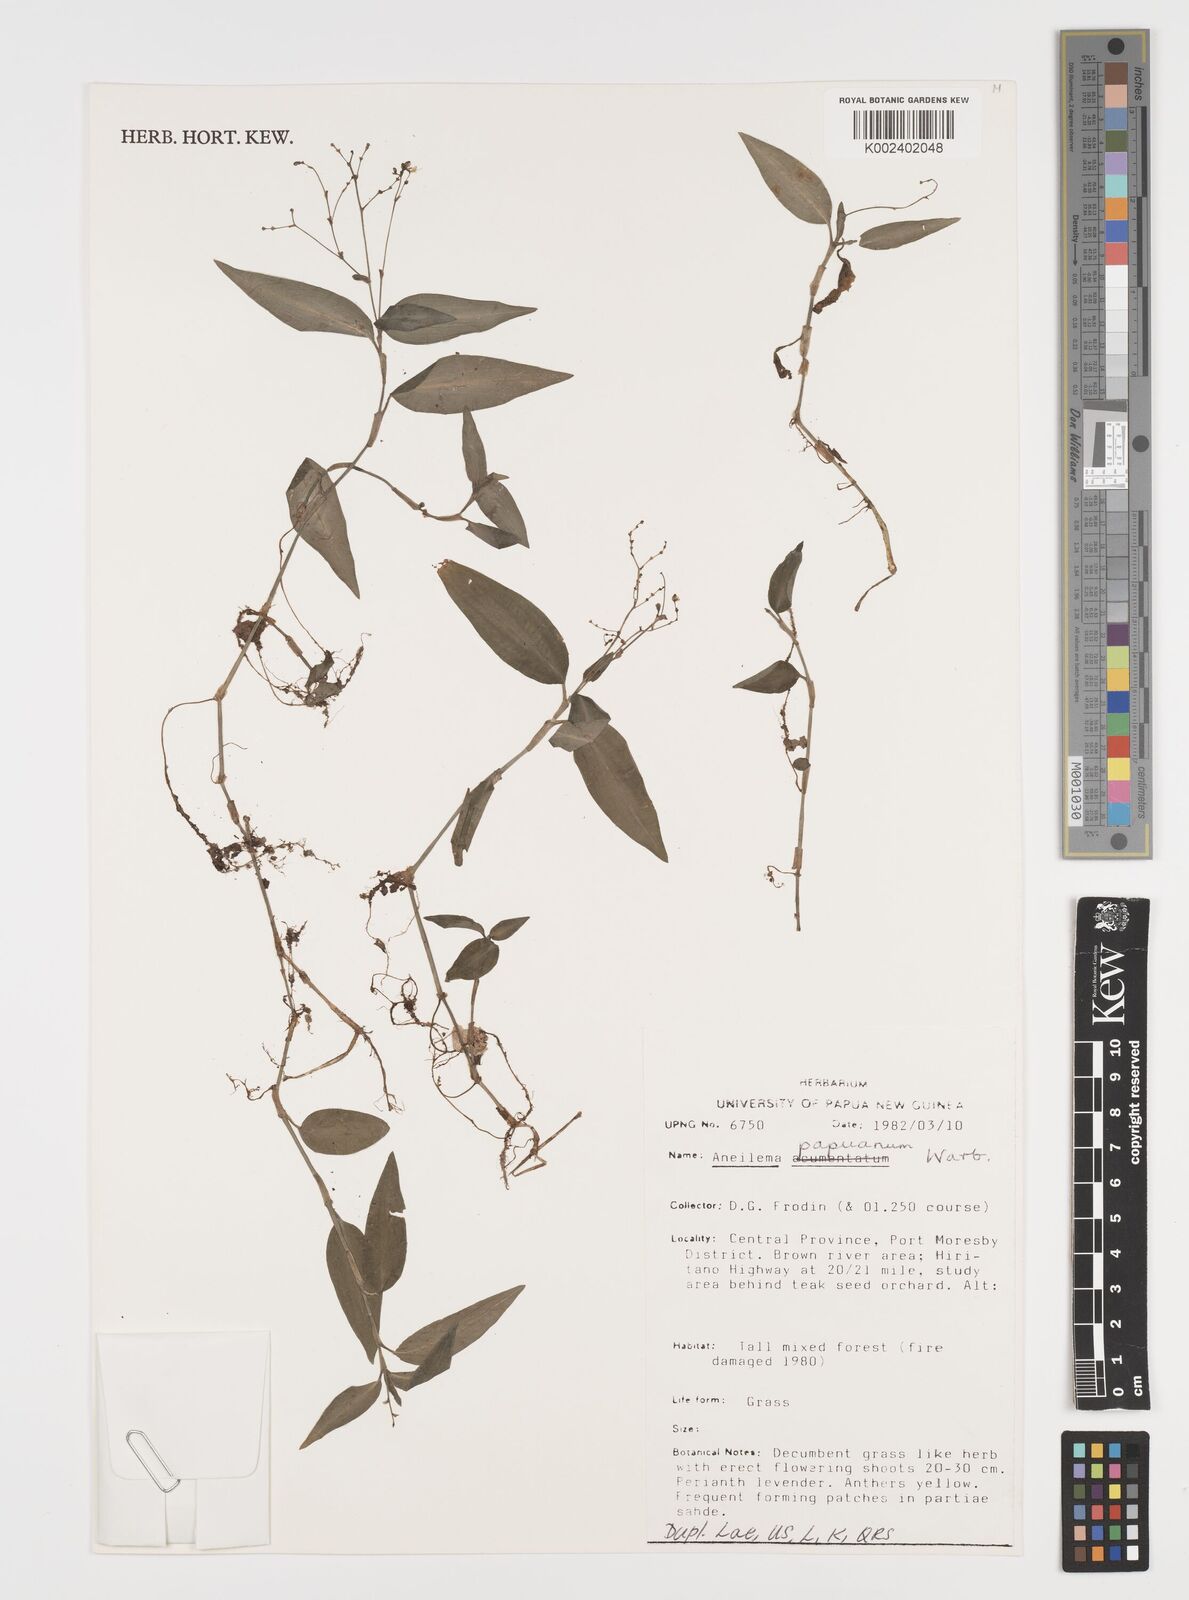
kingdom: Plantae
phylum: Tracheophyta
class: Liliopsida
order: Commelinales
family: Commelinaceae
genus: Aneilema
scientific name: Aneilema acuminatum
